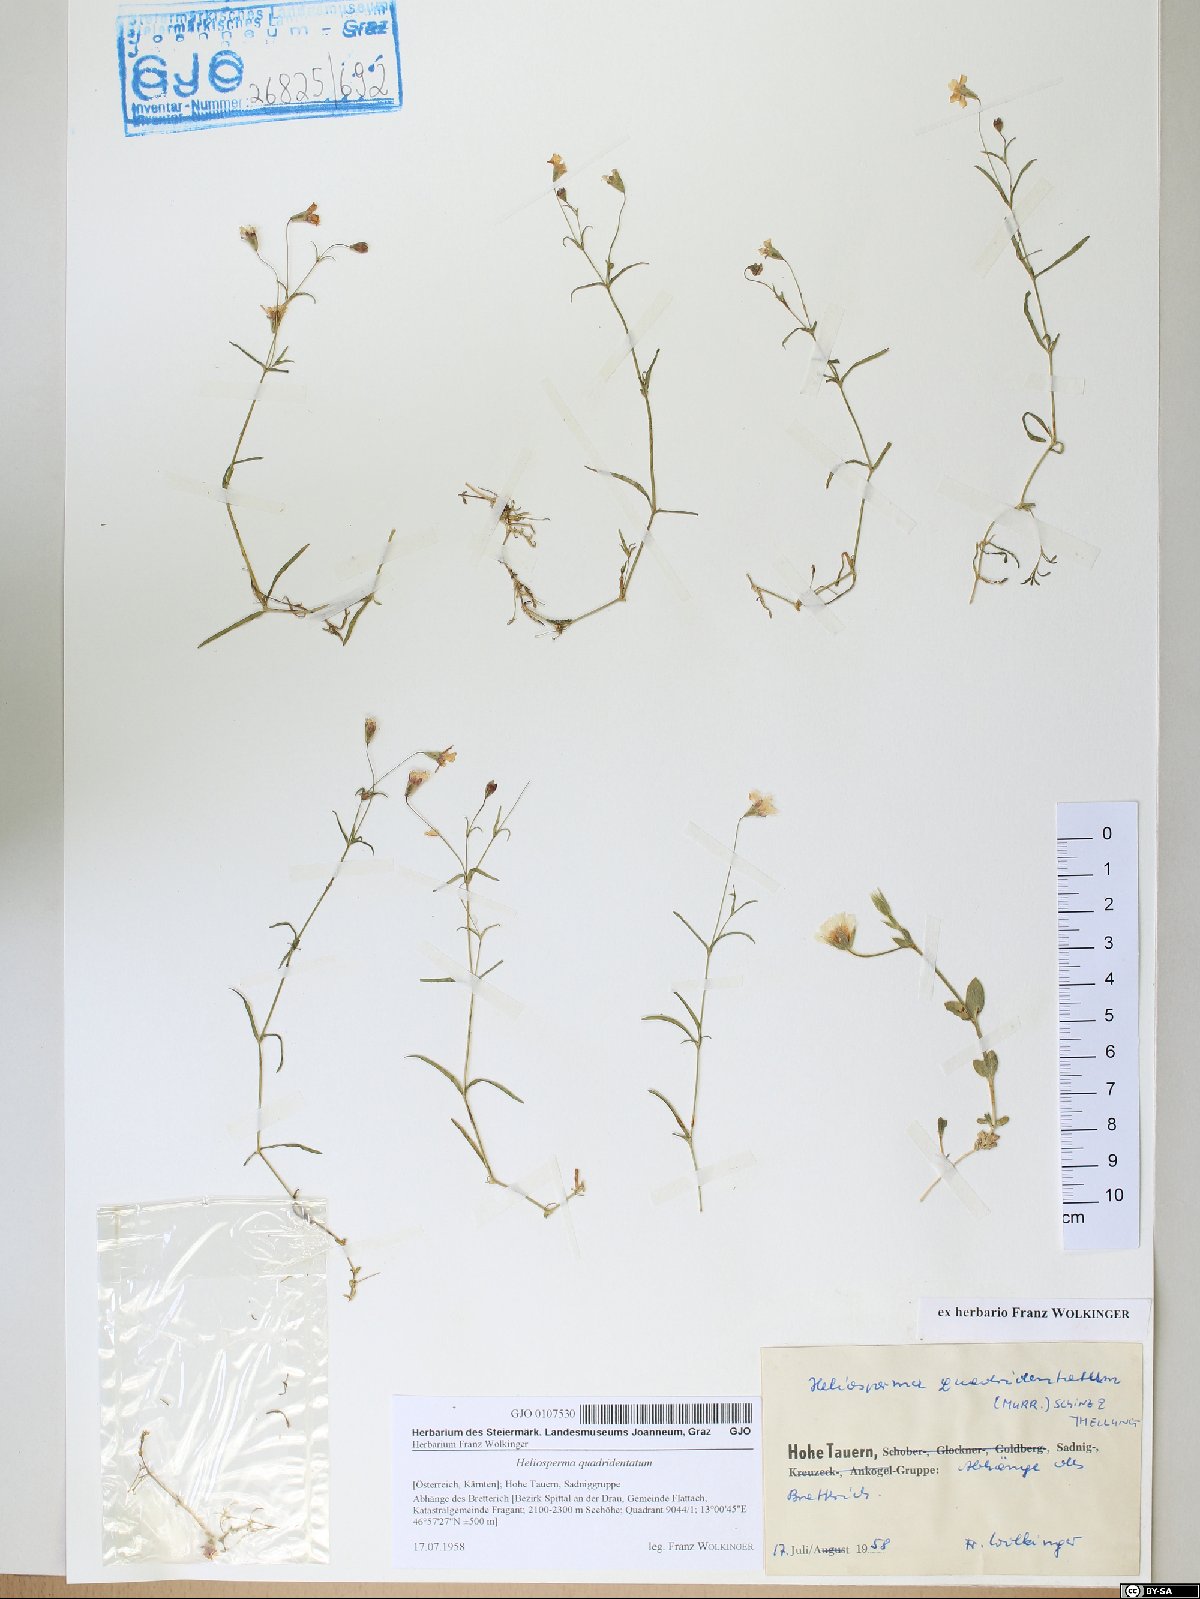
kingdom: Plantae
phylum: Tracheophyta
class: Magnoliopsida
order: Caryophyllales
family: Caryophyllaceae
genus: Heliosperma
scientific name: Heliosperma alpestre
